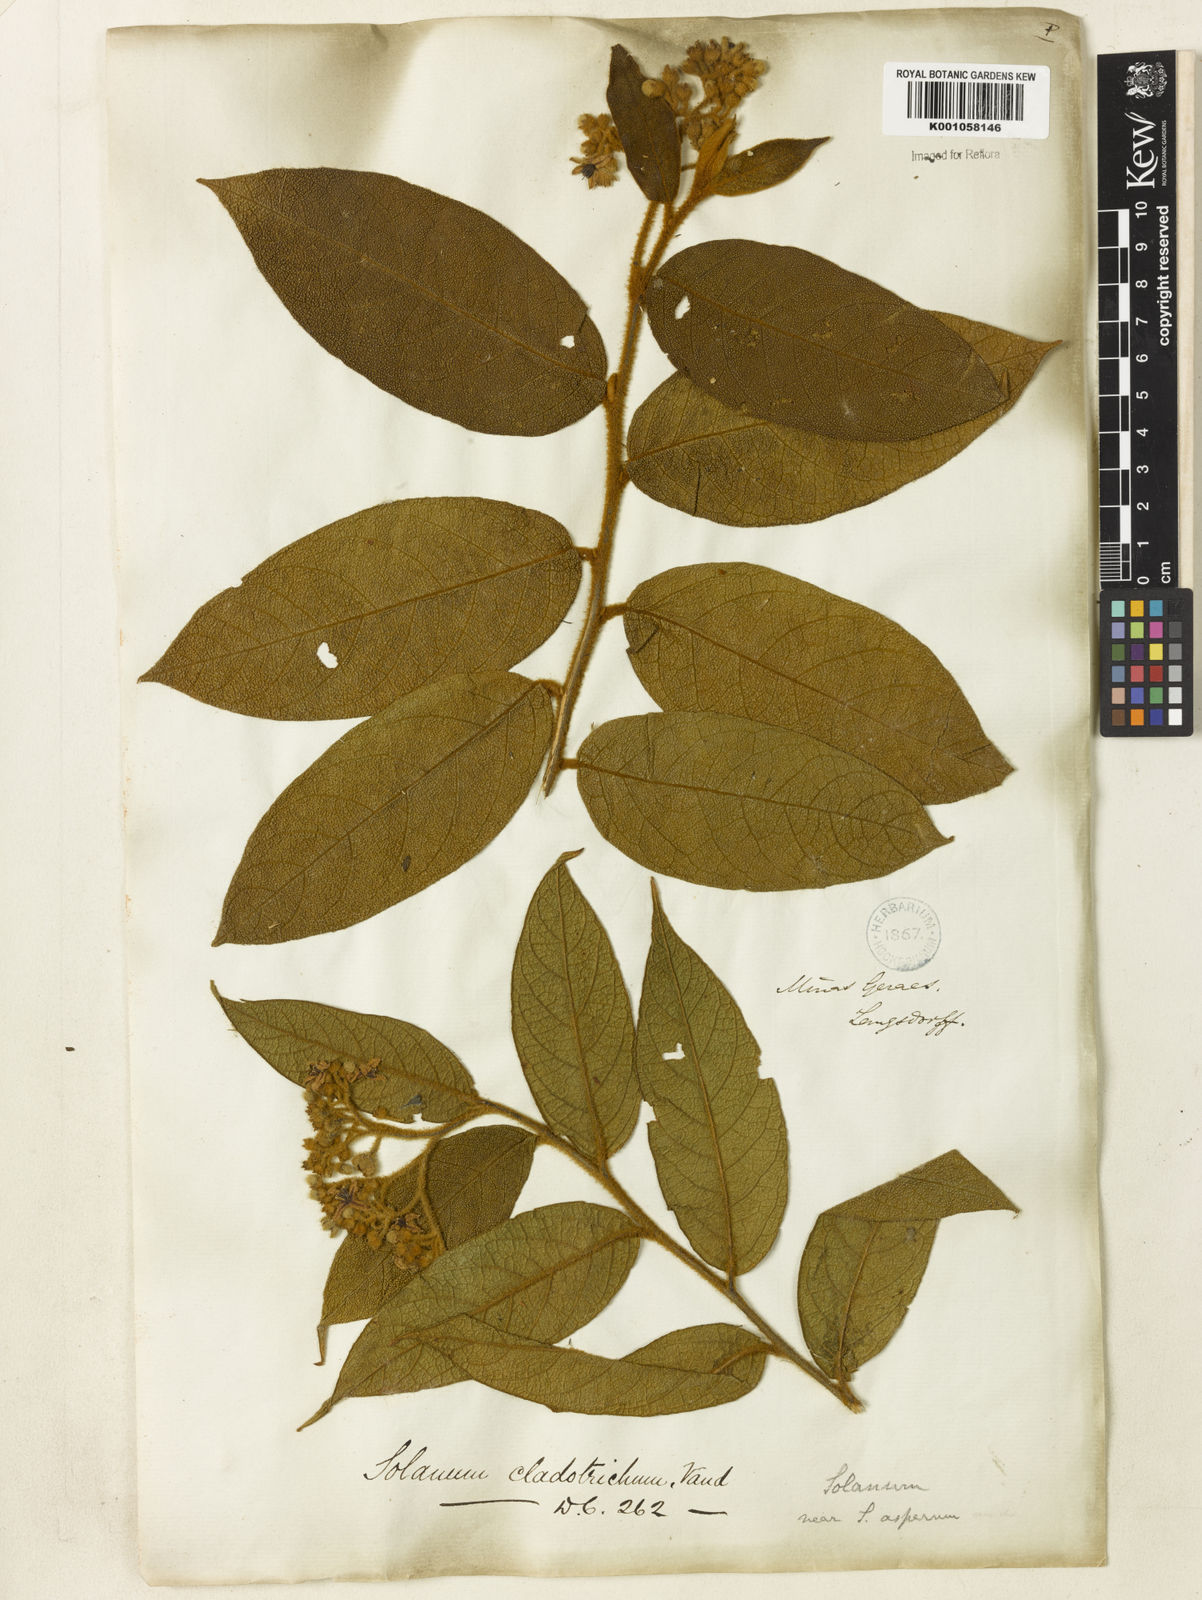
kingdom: Plantae
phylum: Tracheophyta
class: Magnoliopsida
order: Solanales
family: Solanaceae
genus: Solanum
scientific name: Solanum jussiaei
